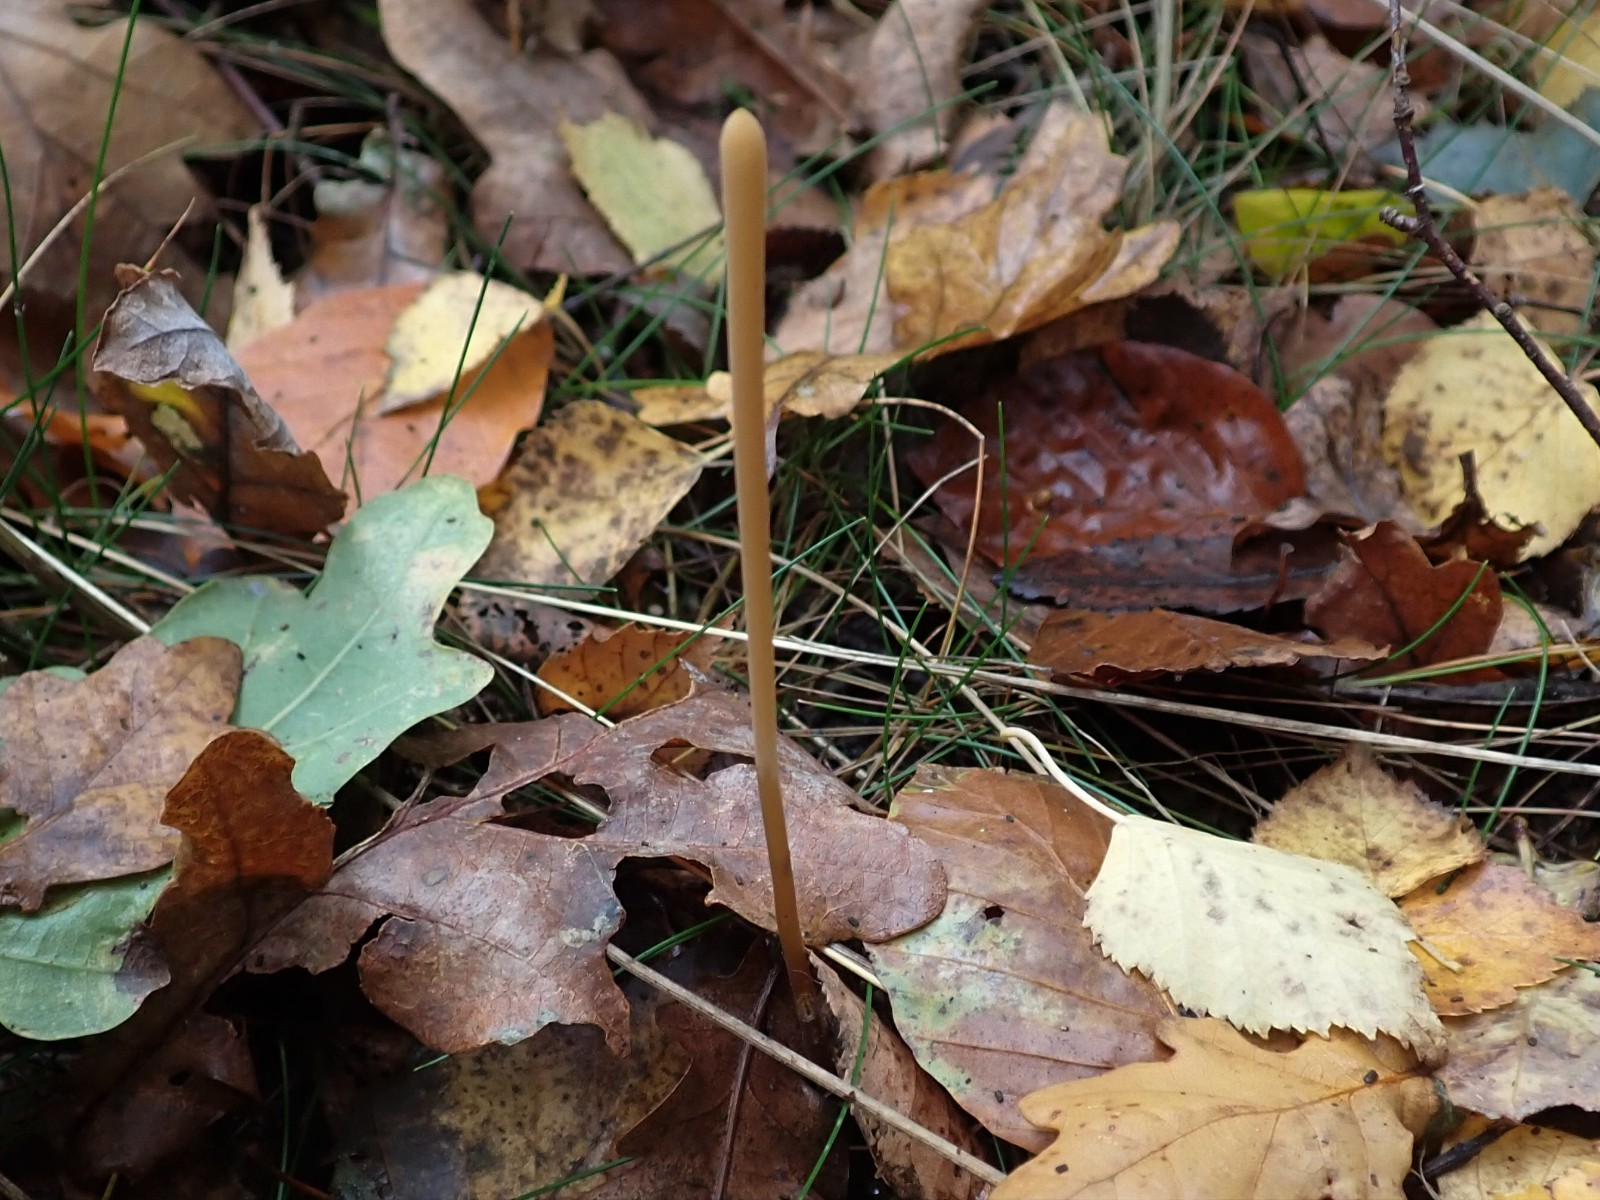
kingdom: Fungi
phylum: Basidiomycota
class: Agaricomycetes
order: Agaricales
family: Typhulaceae
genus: Typhula
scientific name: Typhula fistulosa
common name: pibet rørkølle
